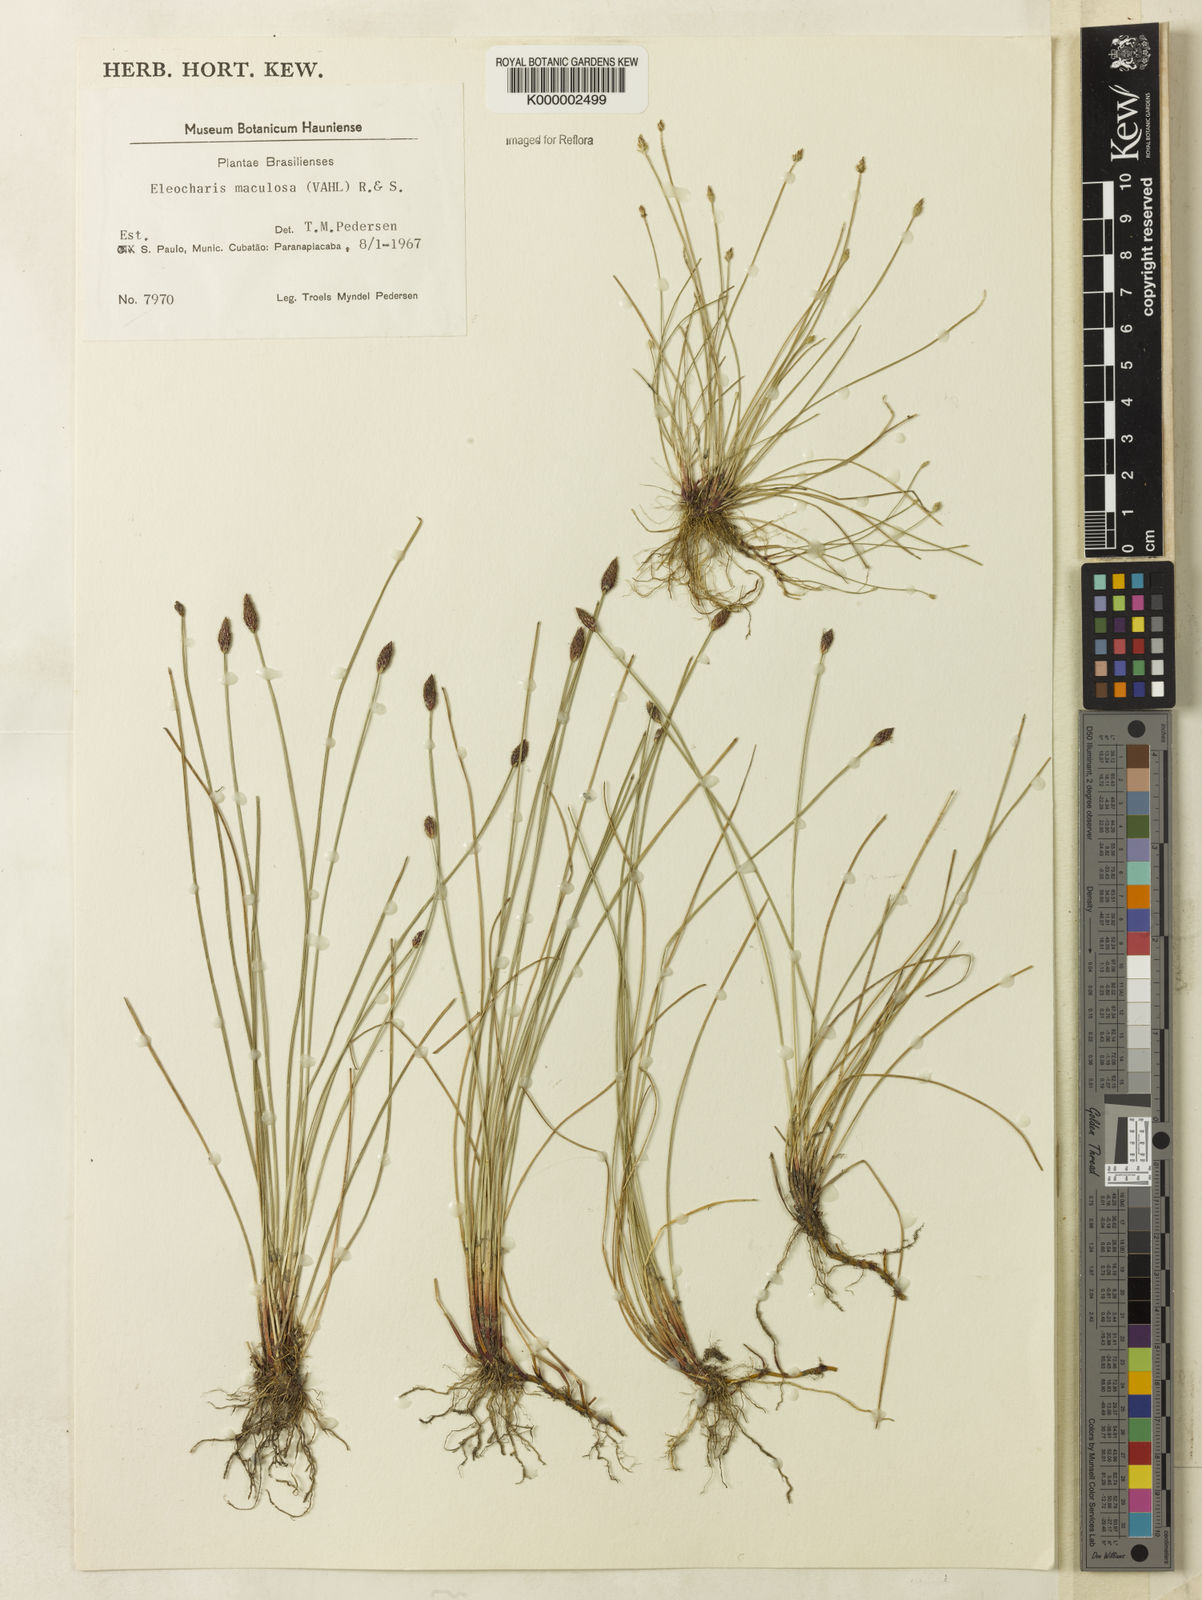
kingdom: Plantae
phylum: Tracheophyta
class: Liliopsida
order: Poales
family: Cyperaceae
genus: Eleocharis
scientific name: Eleocharis maculosa
